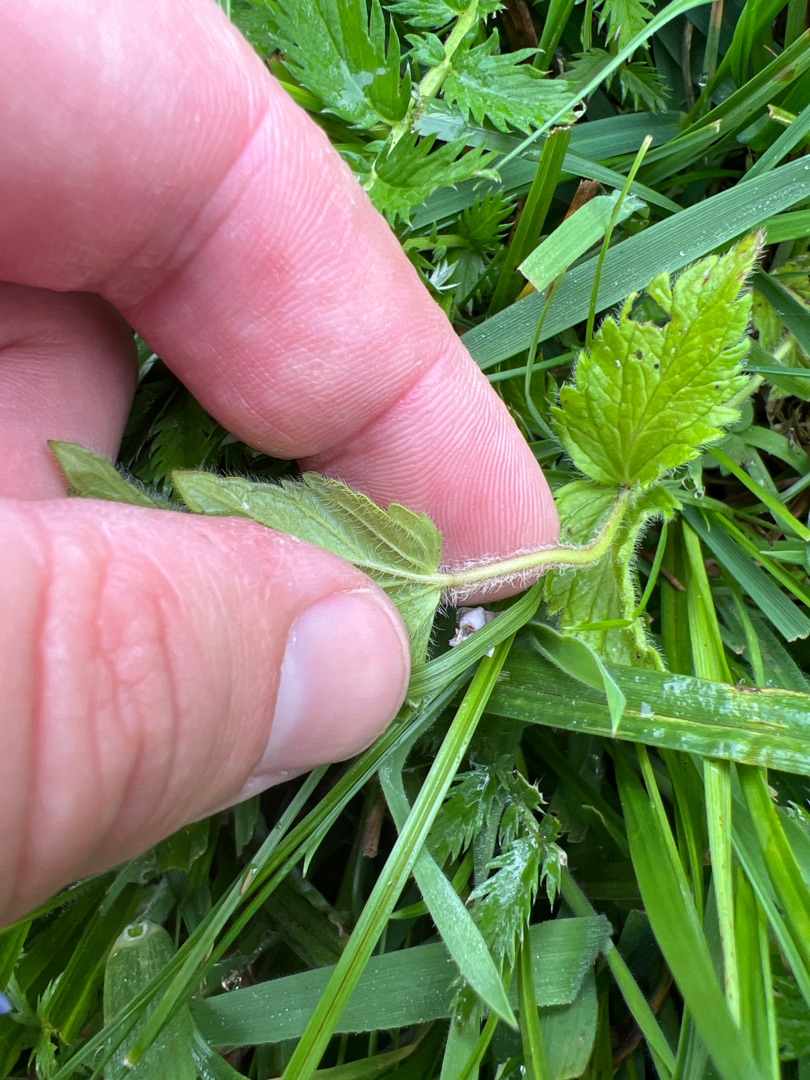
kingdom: Plantae
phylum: Tracheophyta
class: Magnoliopsida
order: Lamiales
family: Plantaginaceae
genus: Veronica
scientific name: Veronica chamaedrys
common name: Tveskægget ærenpris
